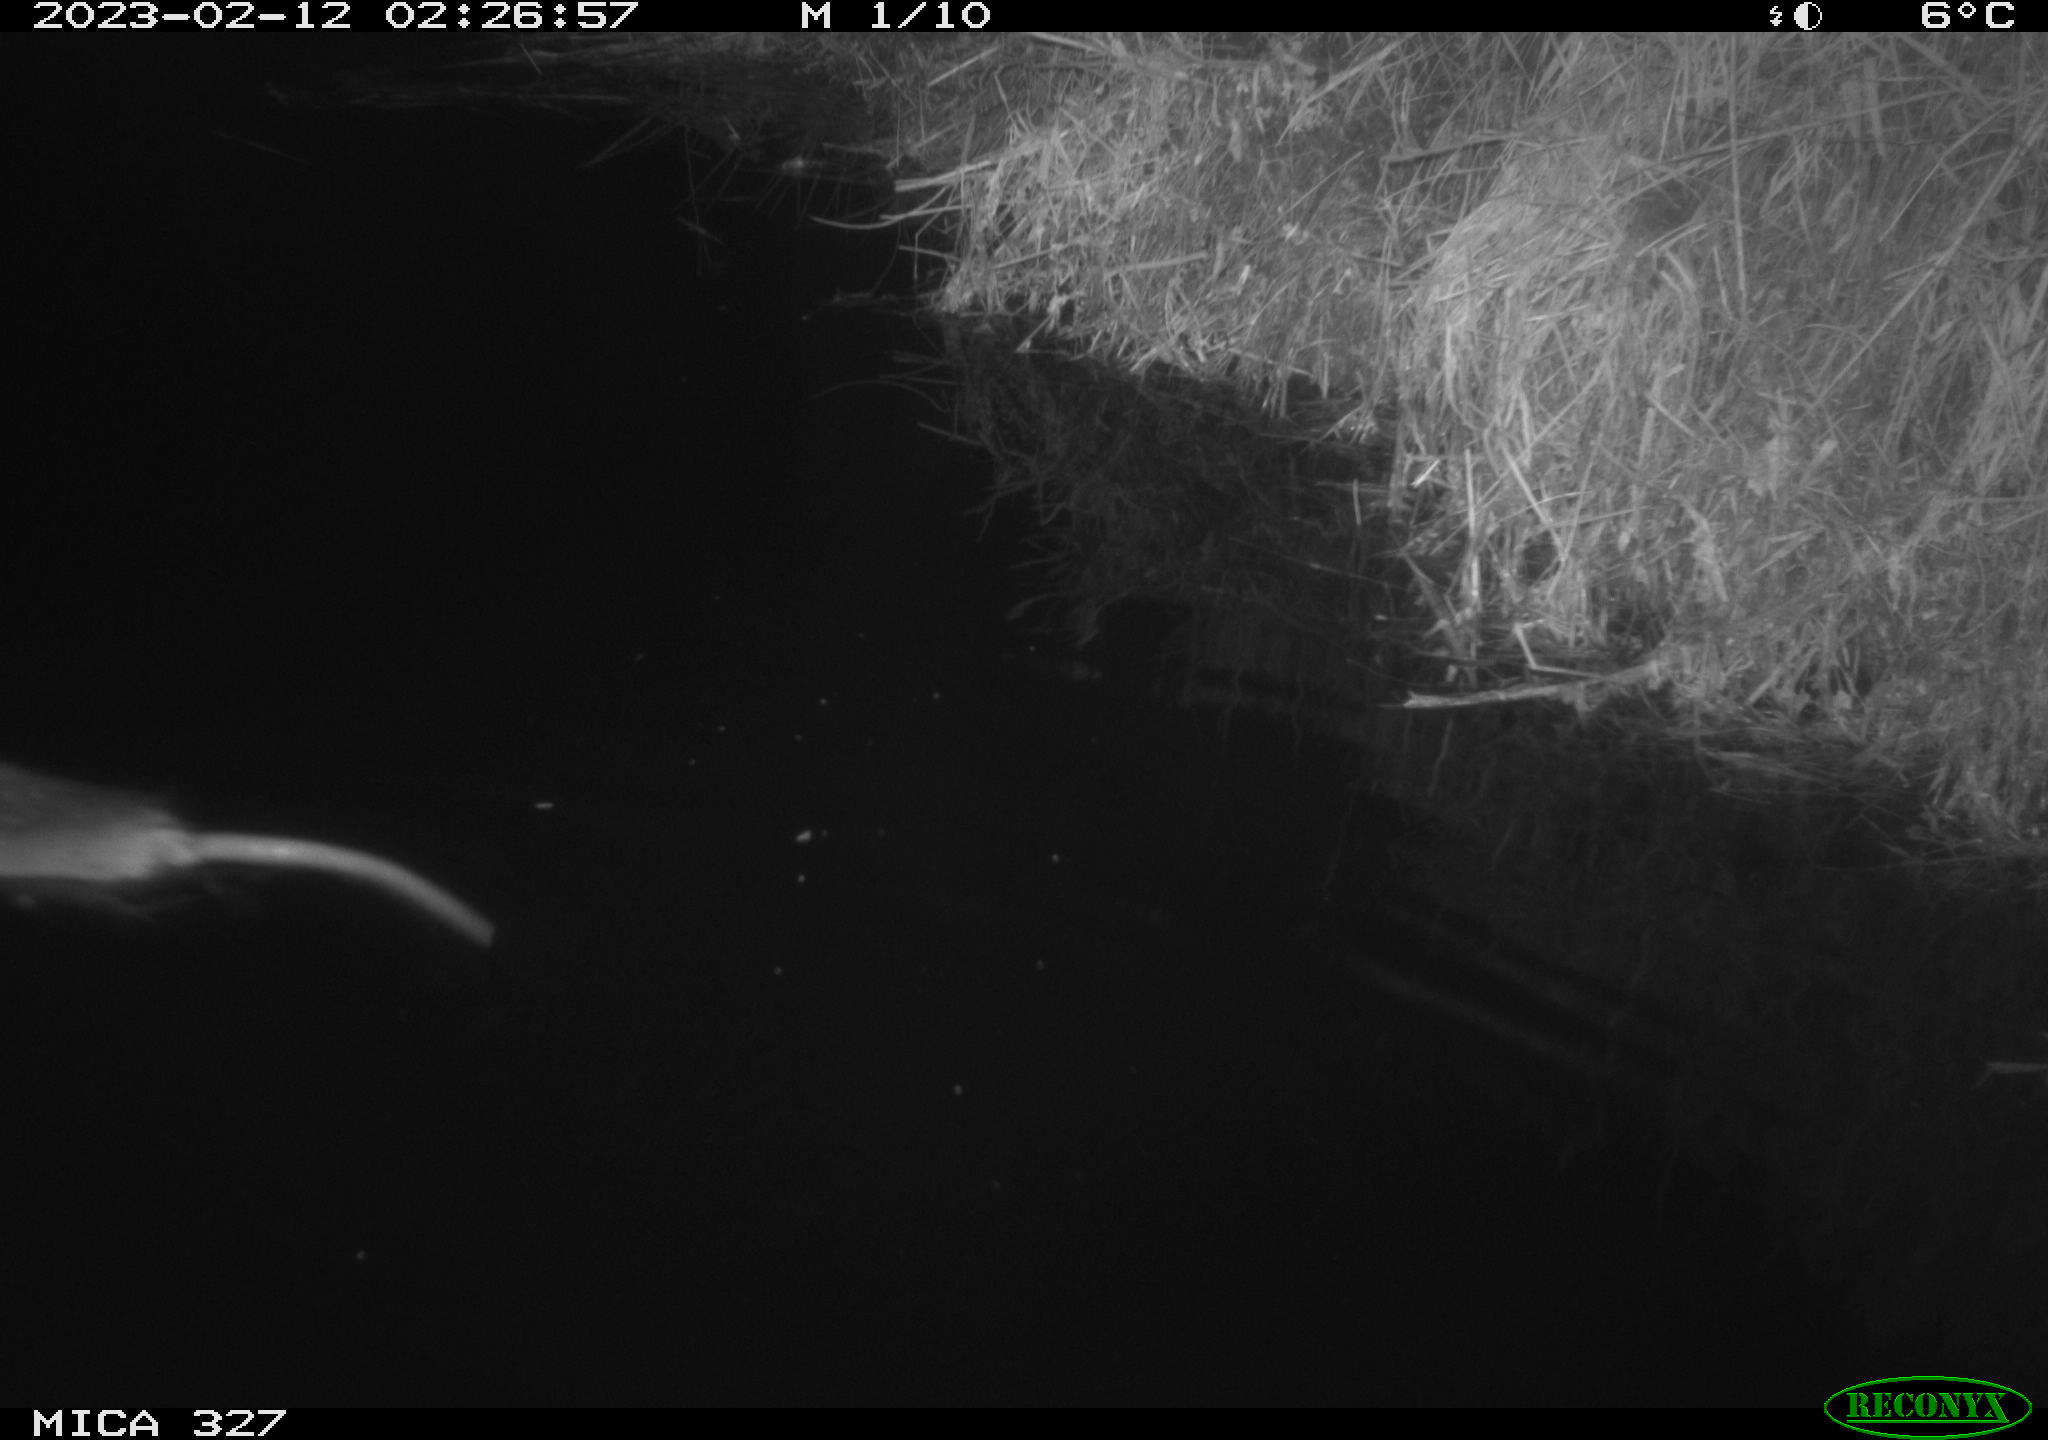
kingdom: Animalia
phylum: Chordata
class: Mammalia
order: Rodentia
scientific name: Rodentia
